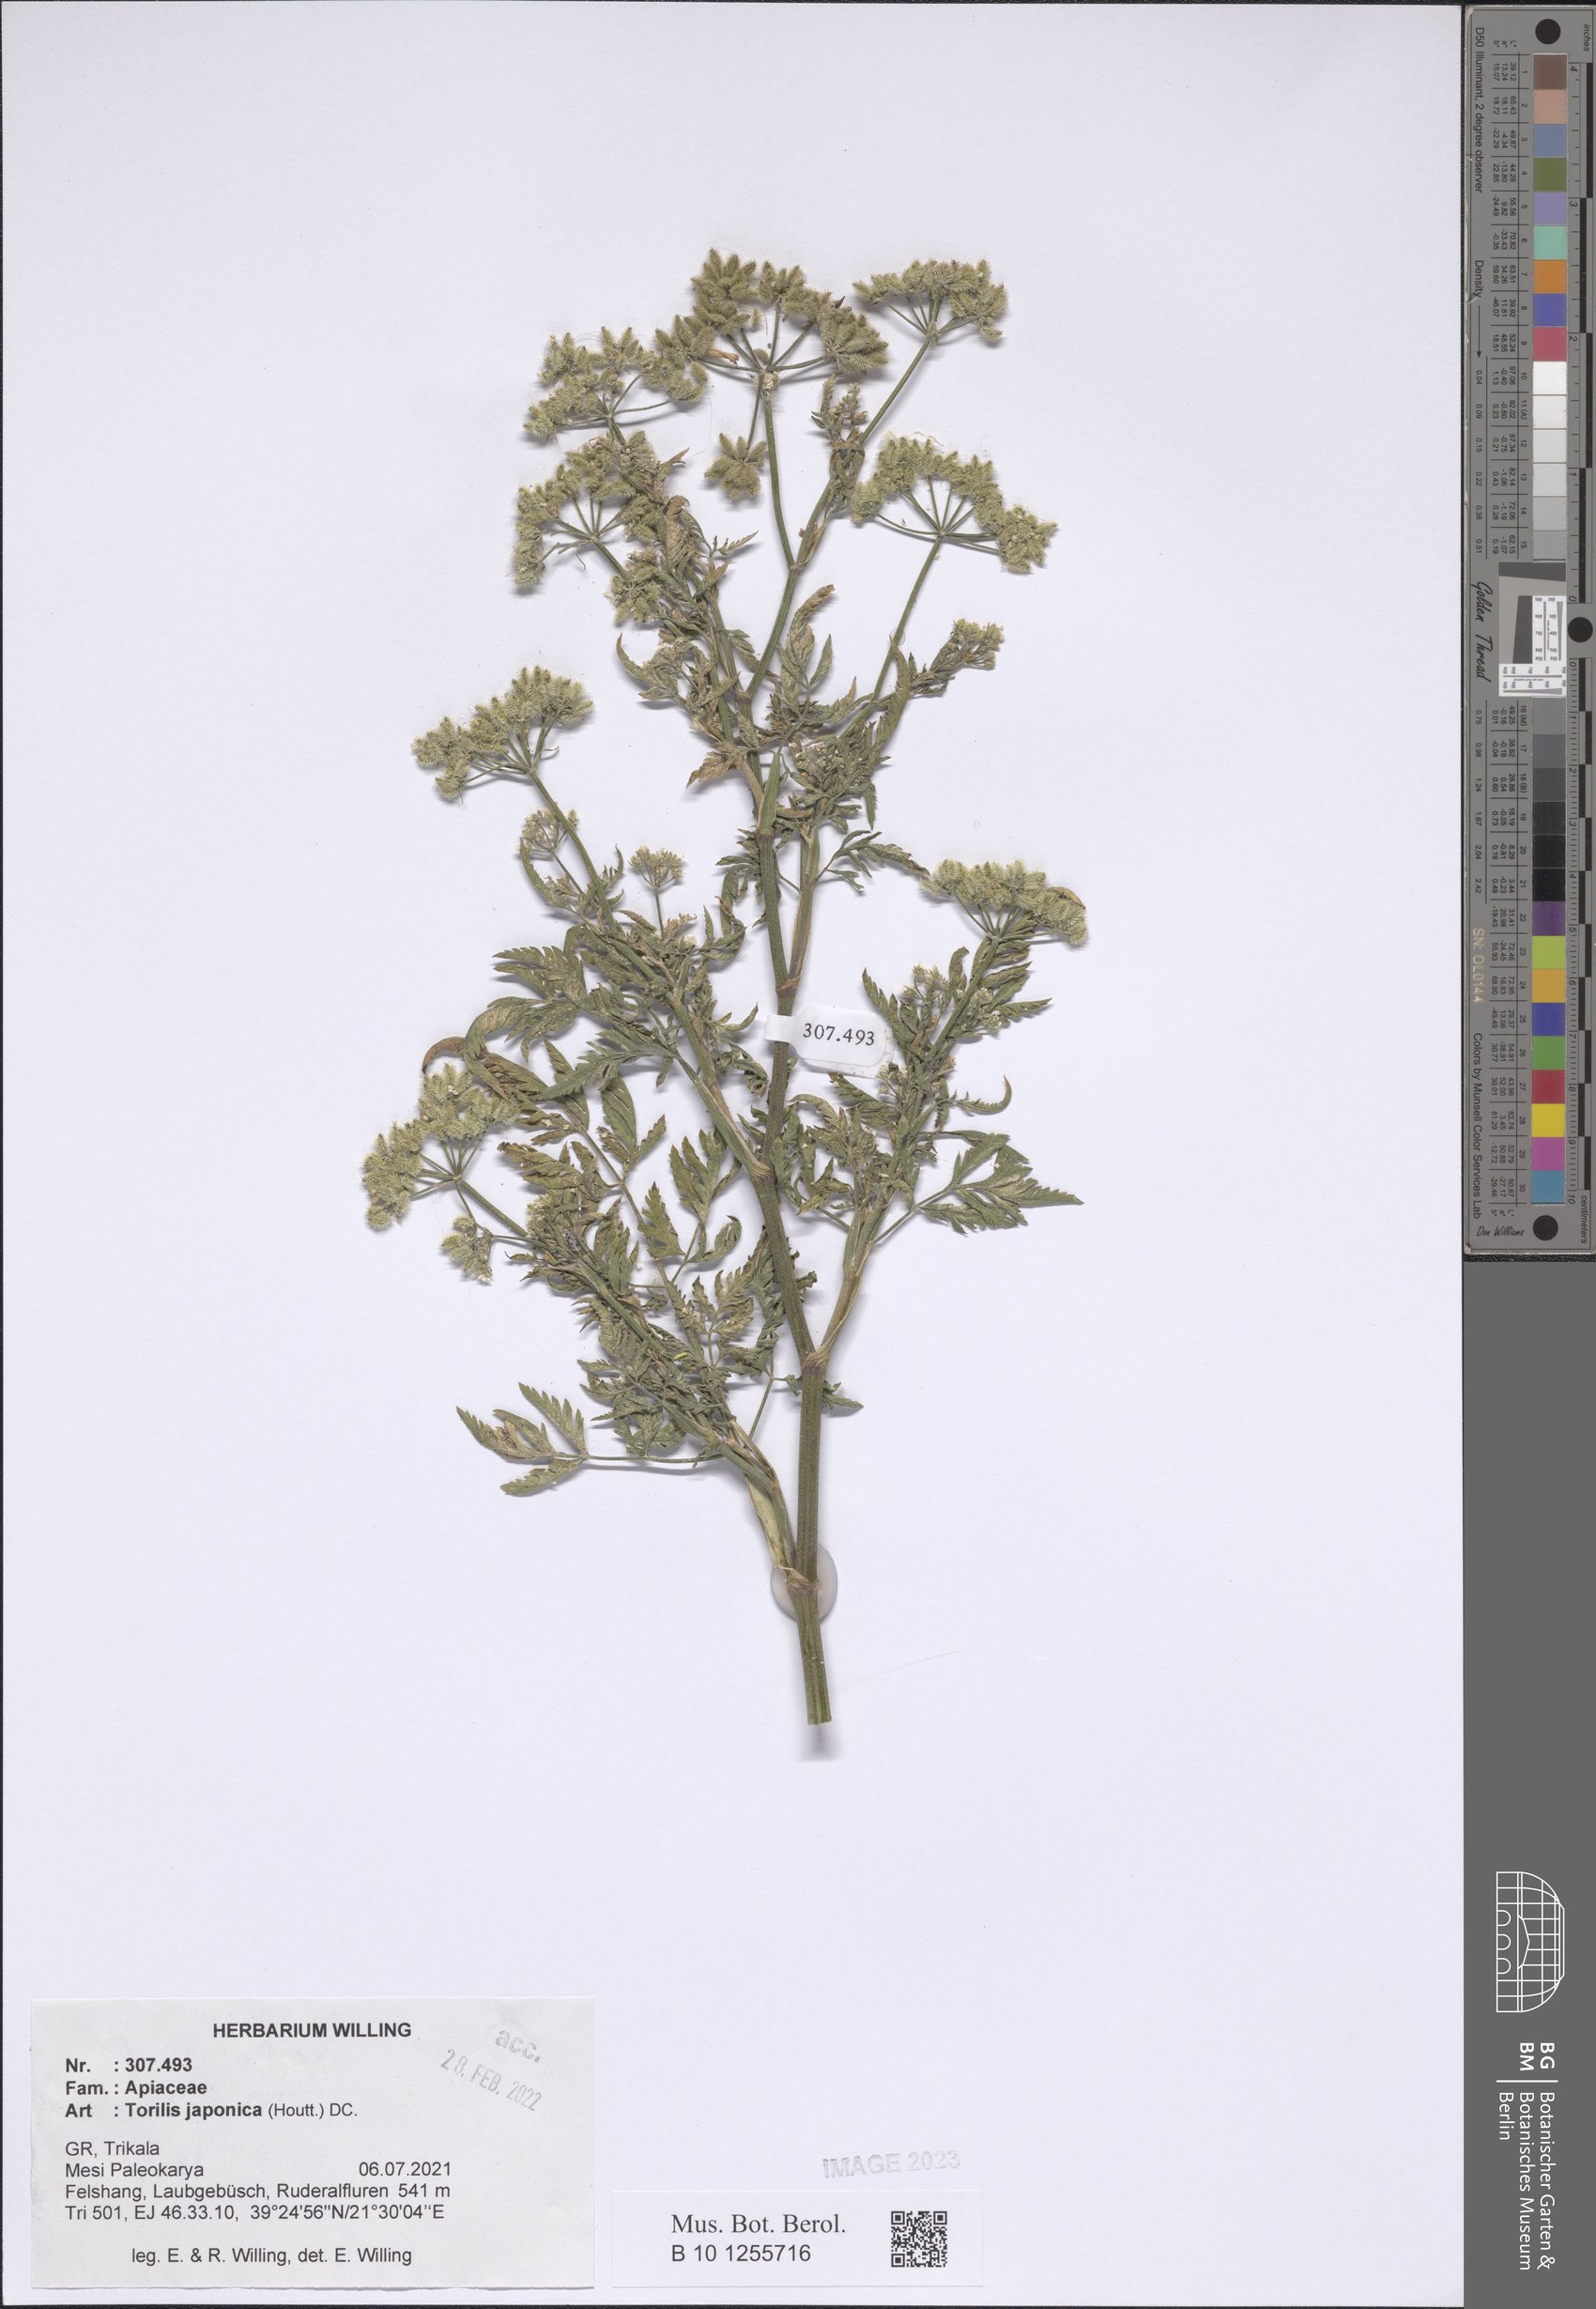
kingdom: Plantae
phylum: Tracheophyta
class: Magnoliopsida
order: Apiales
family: Apiaceae
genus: Torilis
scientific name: Torilis japonica
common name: Upright hedge-parsley
